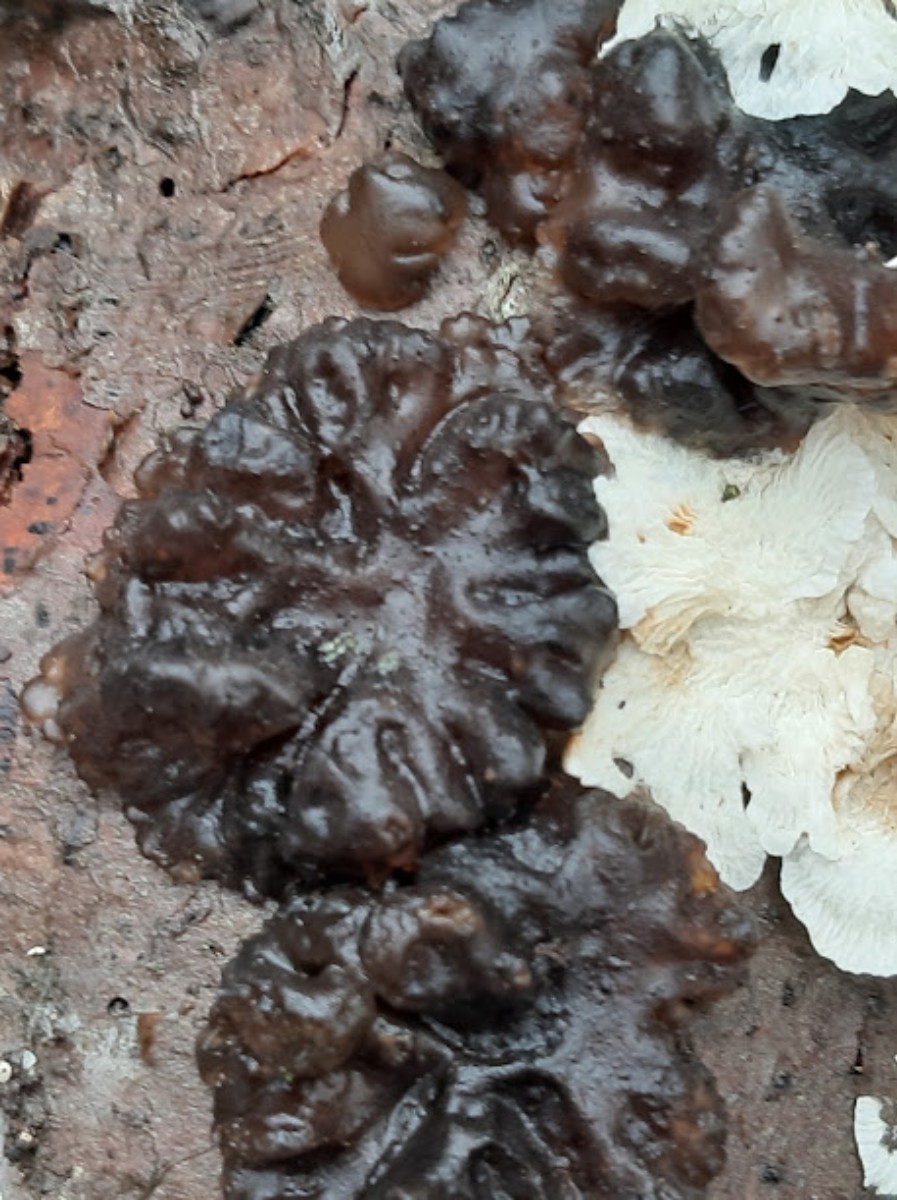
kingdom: Fungi
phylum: Basidiomycota
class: Agaricomycetes
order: Auriculariales
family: Auriculariaceae
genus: Exidia
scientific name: Exidia nigricans
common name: almindelig bævretop
